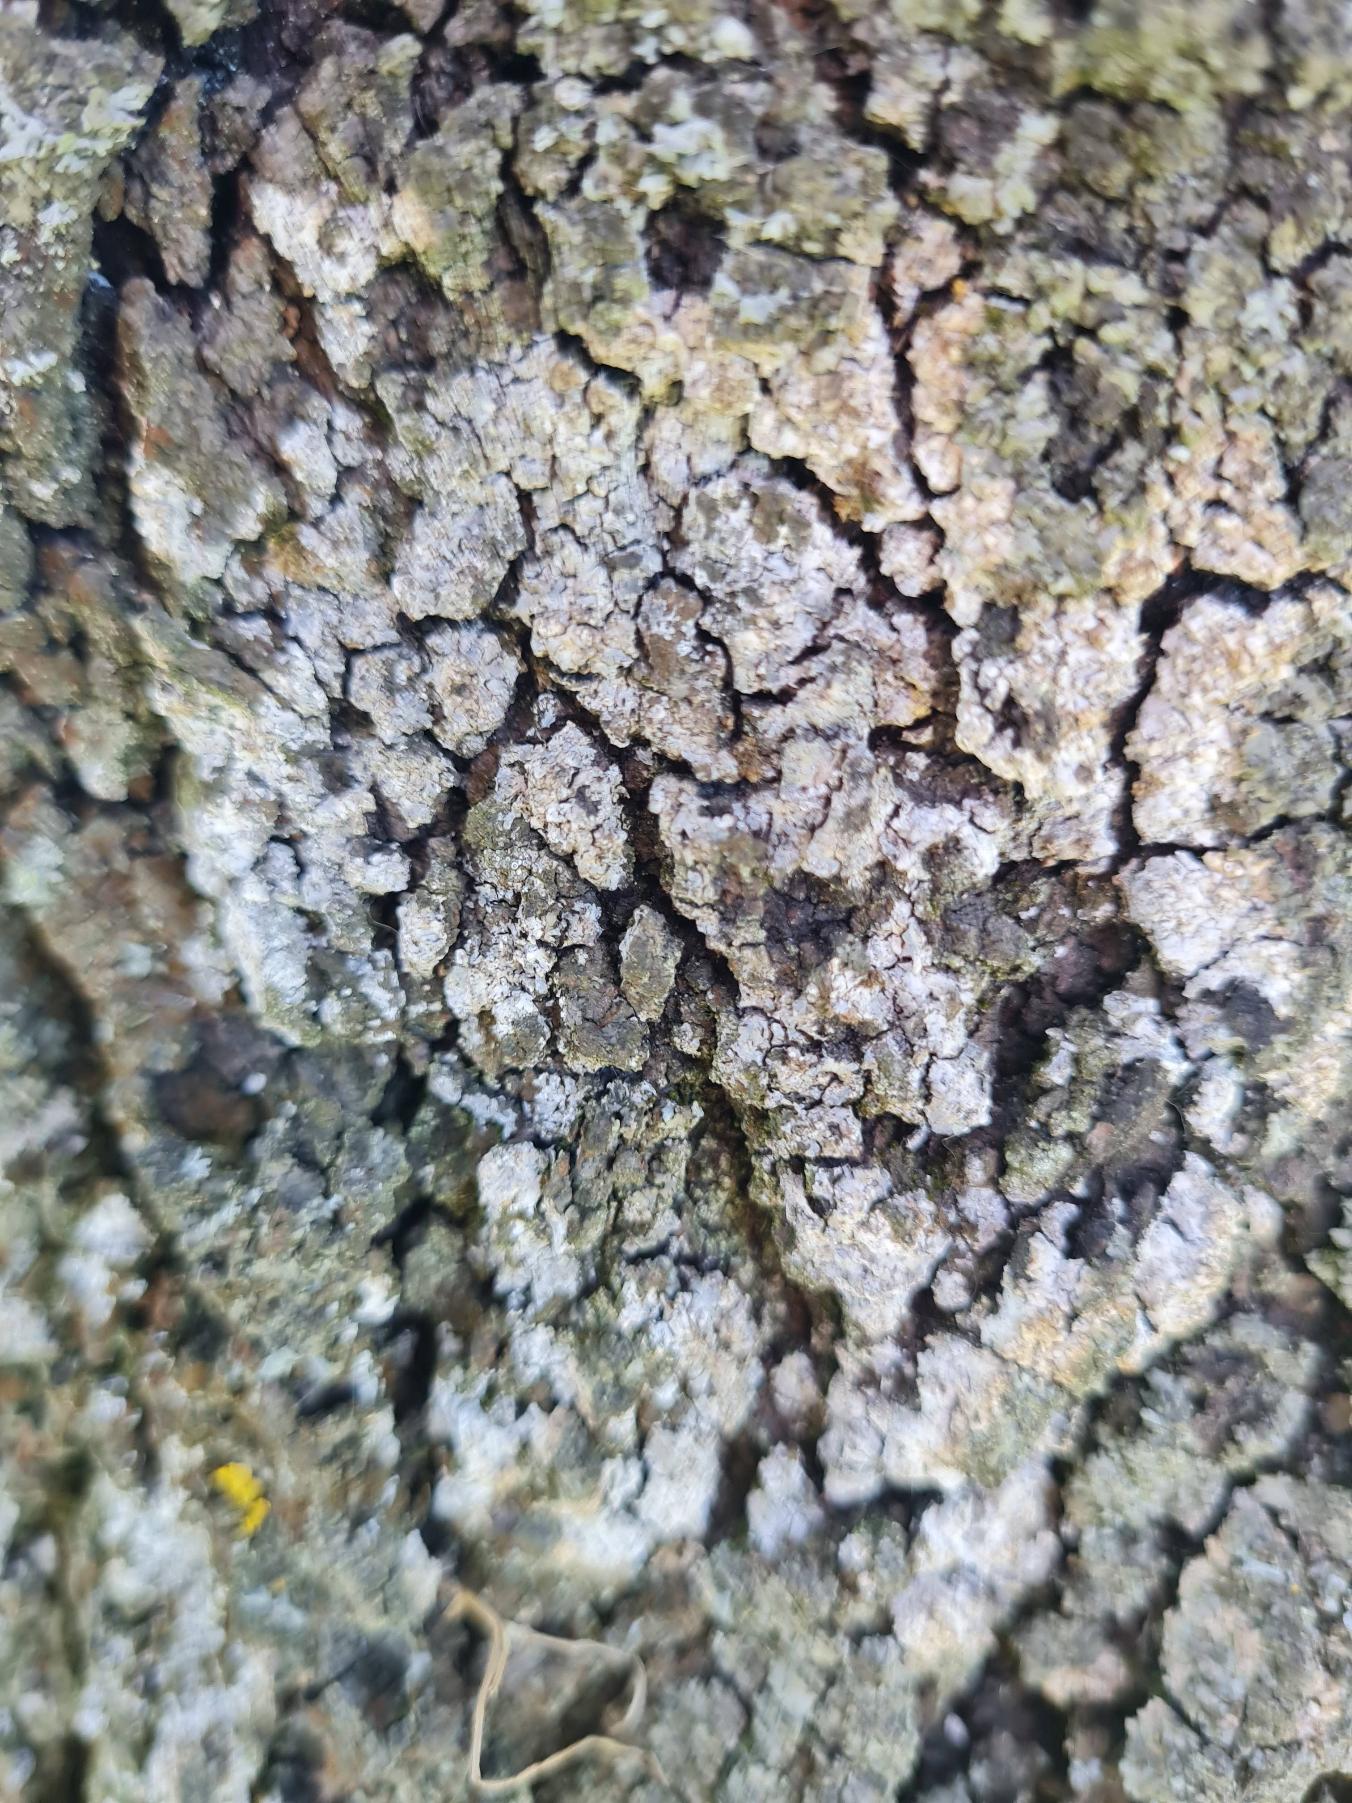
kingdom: Fungi
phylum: Ascomycota
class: Lecanoromycetes
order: Teloschistales
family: Teloschistaceae
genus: Xanthoria
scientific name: Xanthoria parietina
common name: Almindelig væggelav
